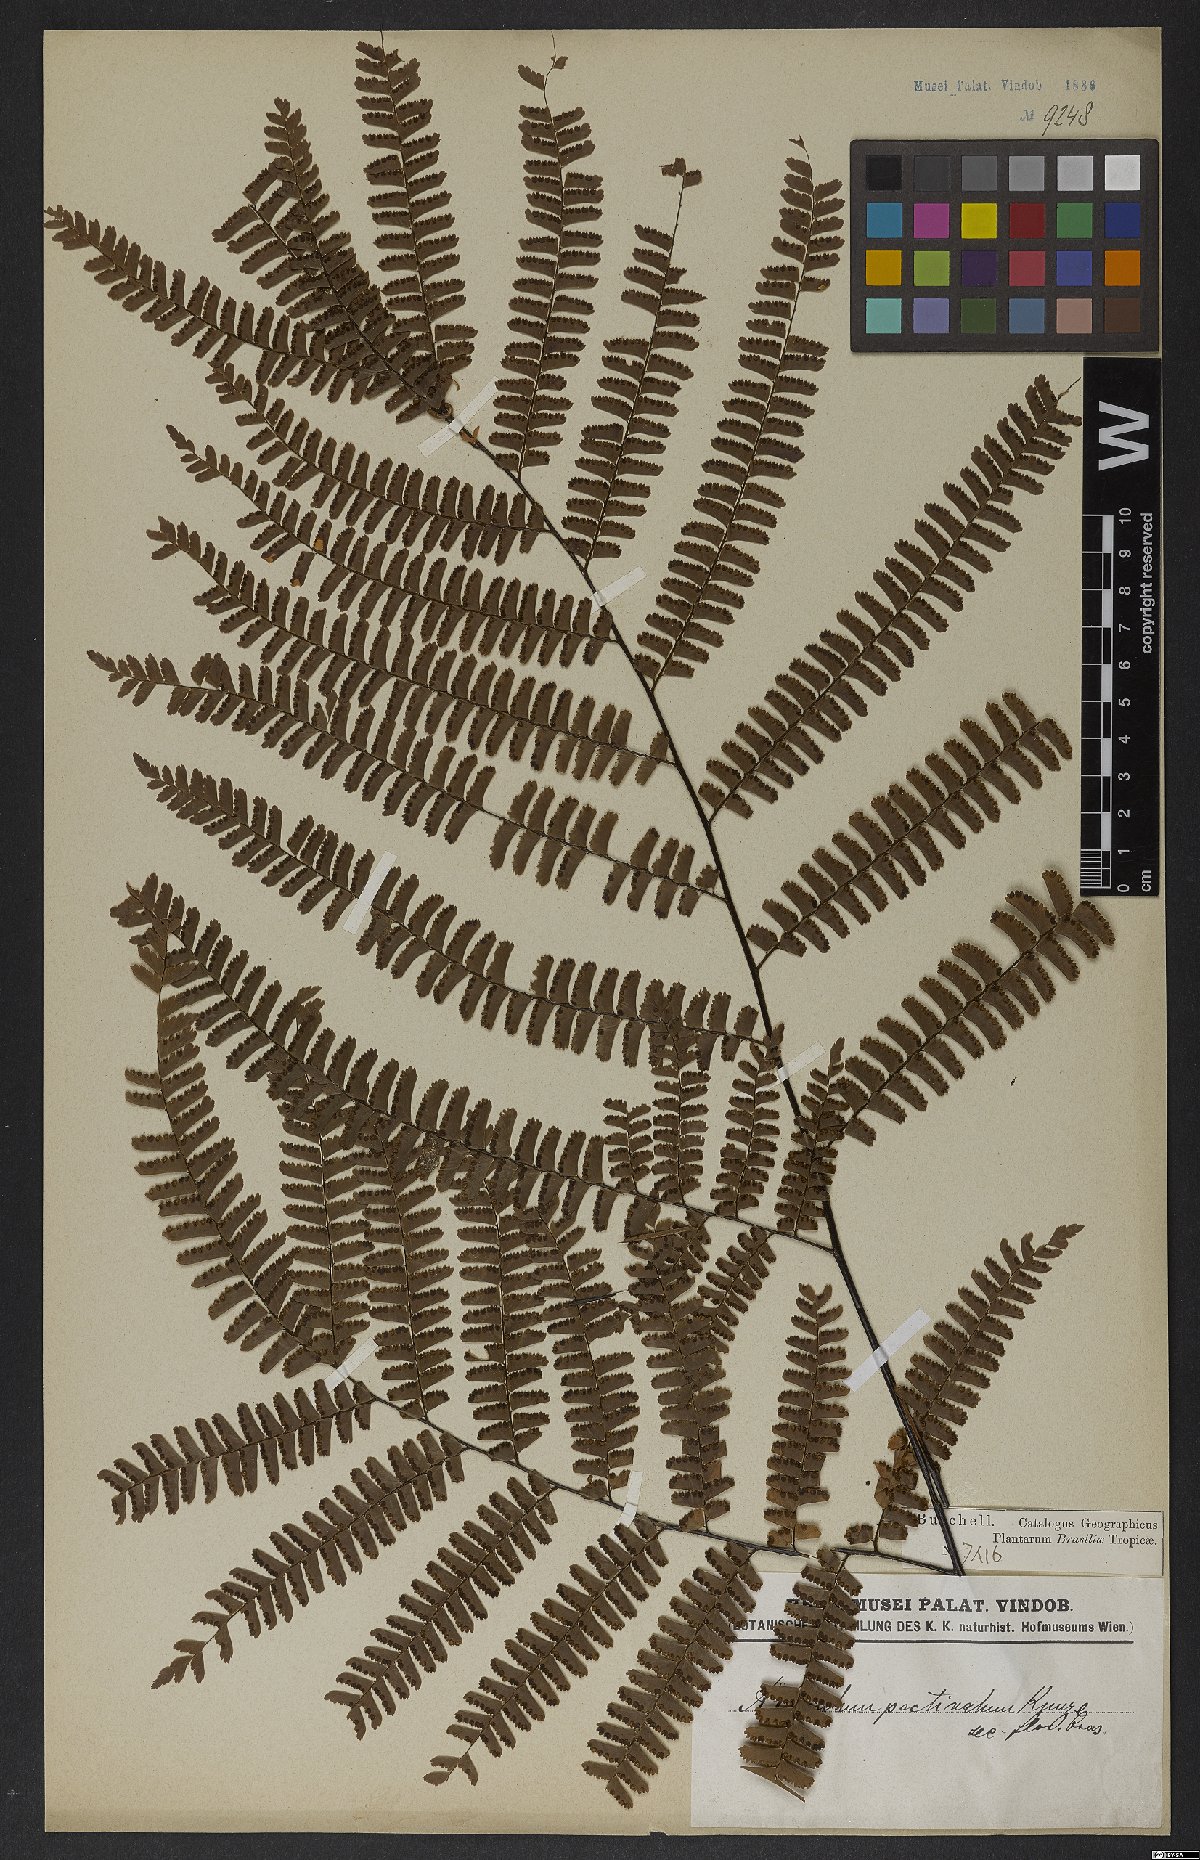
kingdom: Plantae
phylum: Tracheophyta
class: Polypodiopsida
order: Polypodiales
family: Pteridaceae
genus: Adiantum
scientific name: Adiantum pectinatum
